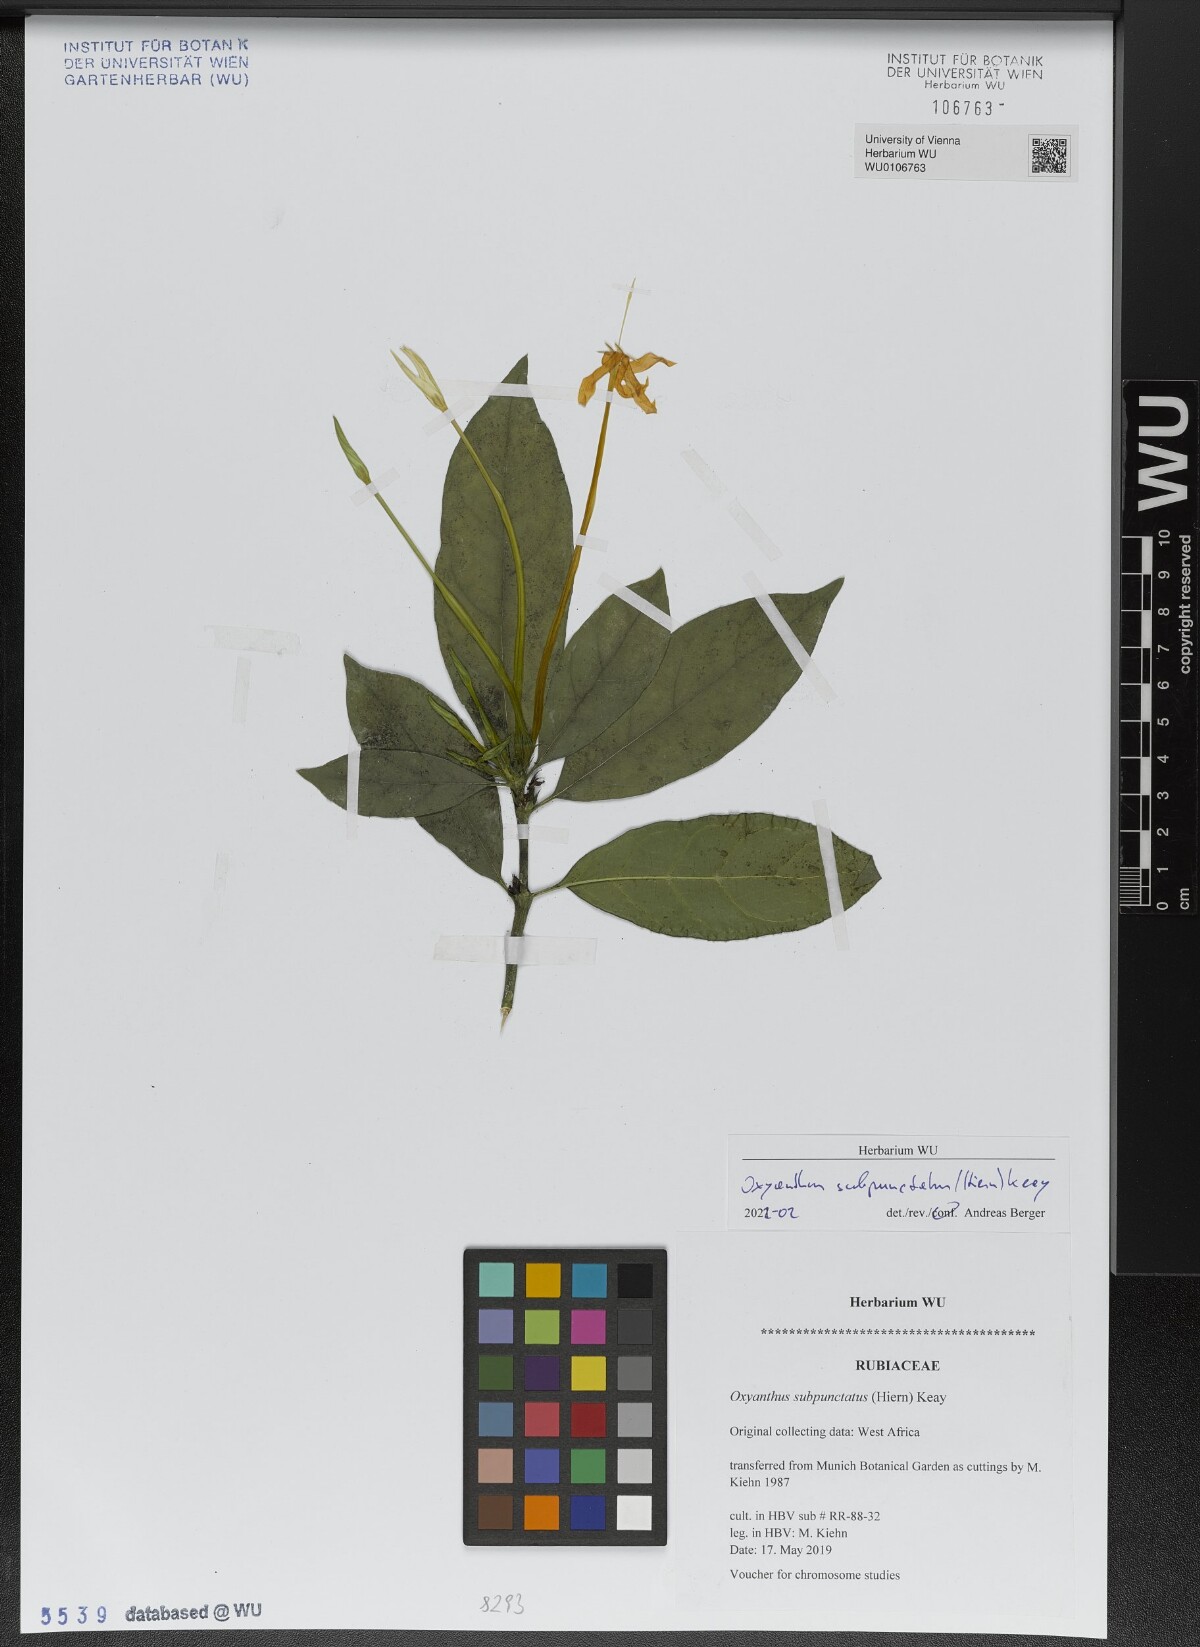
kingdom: Plantae
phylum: Tracheophyta
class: Magnoliopsida
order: Gentianales
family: Rubiaceae
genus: Oxyanthus
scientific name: Oxyanthus subpunctatus
